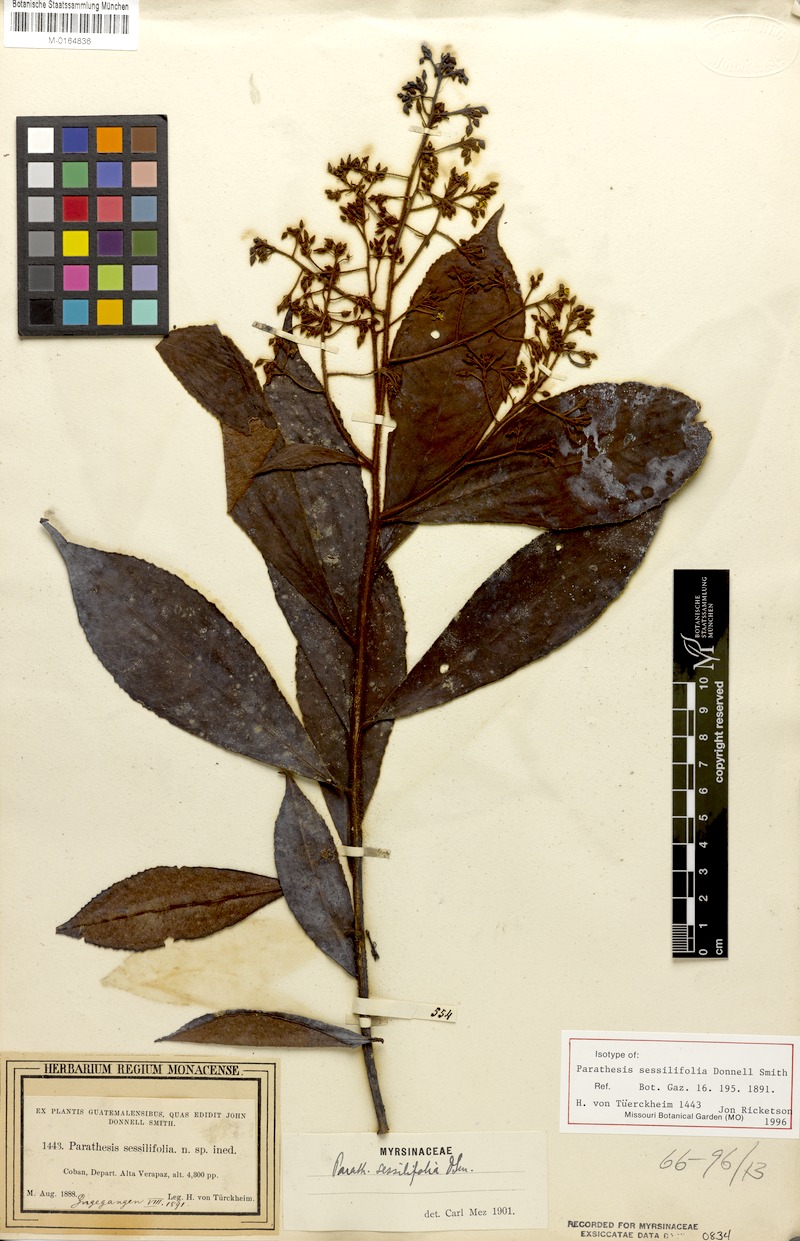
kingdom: Plantae
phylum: Tracheophyta
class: Magnoliopsida
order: Ericales
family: Primulaceae
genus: Parathesis
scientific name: Parathesis sessilifolia
